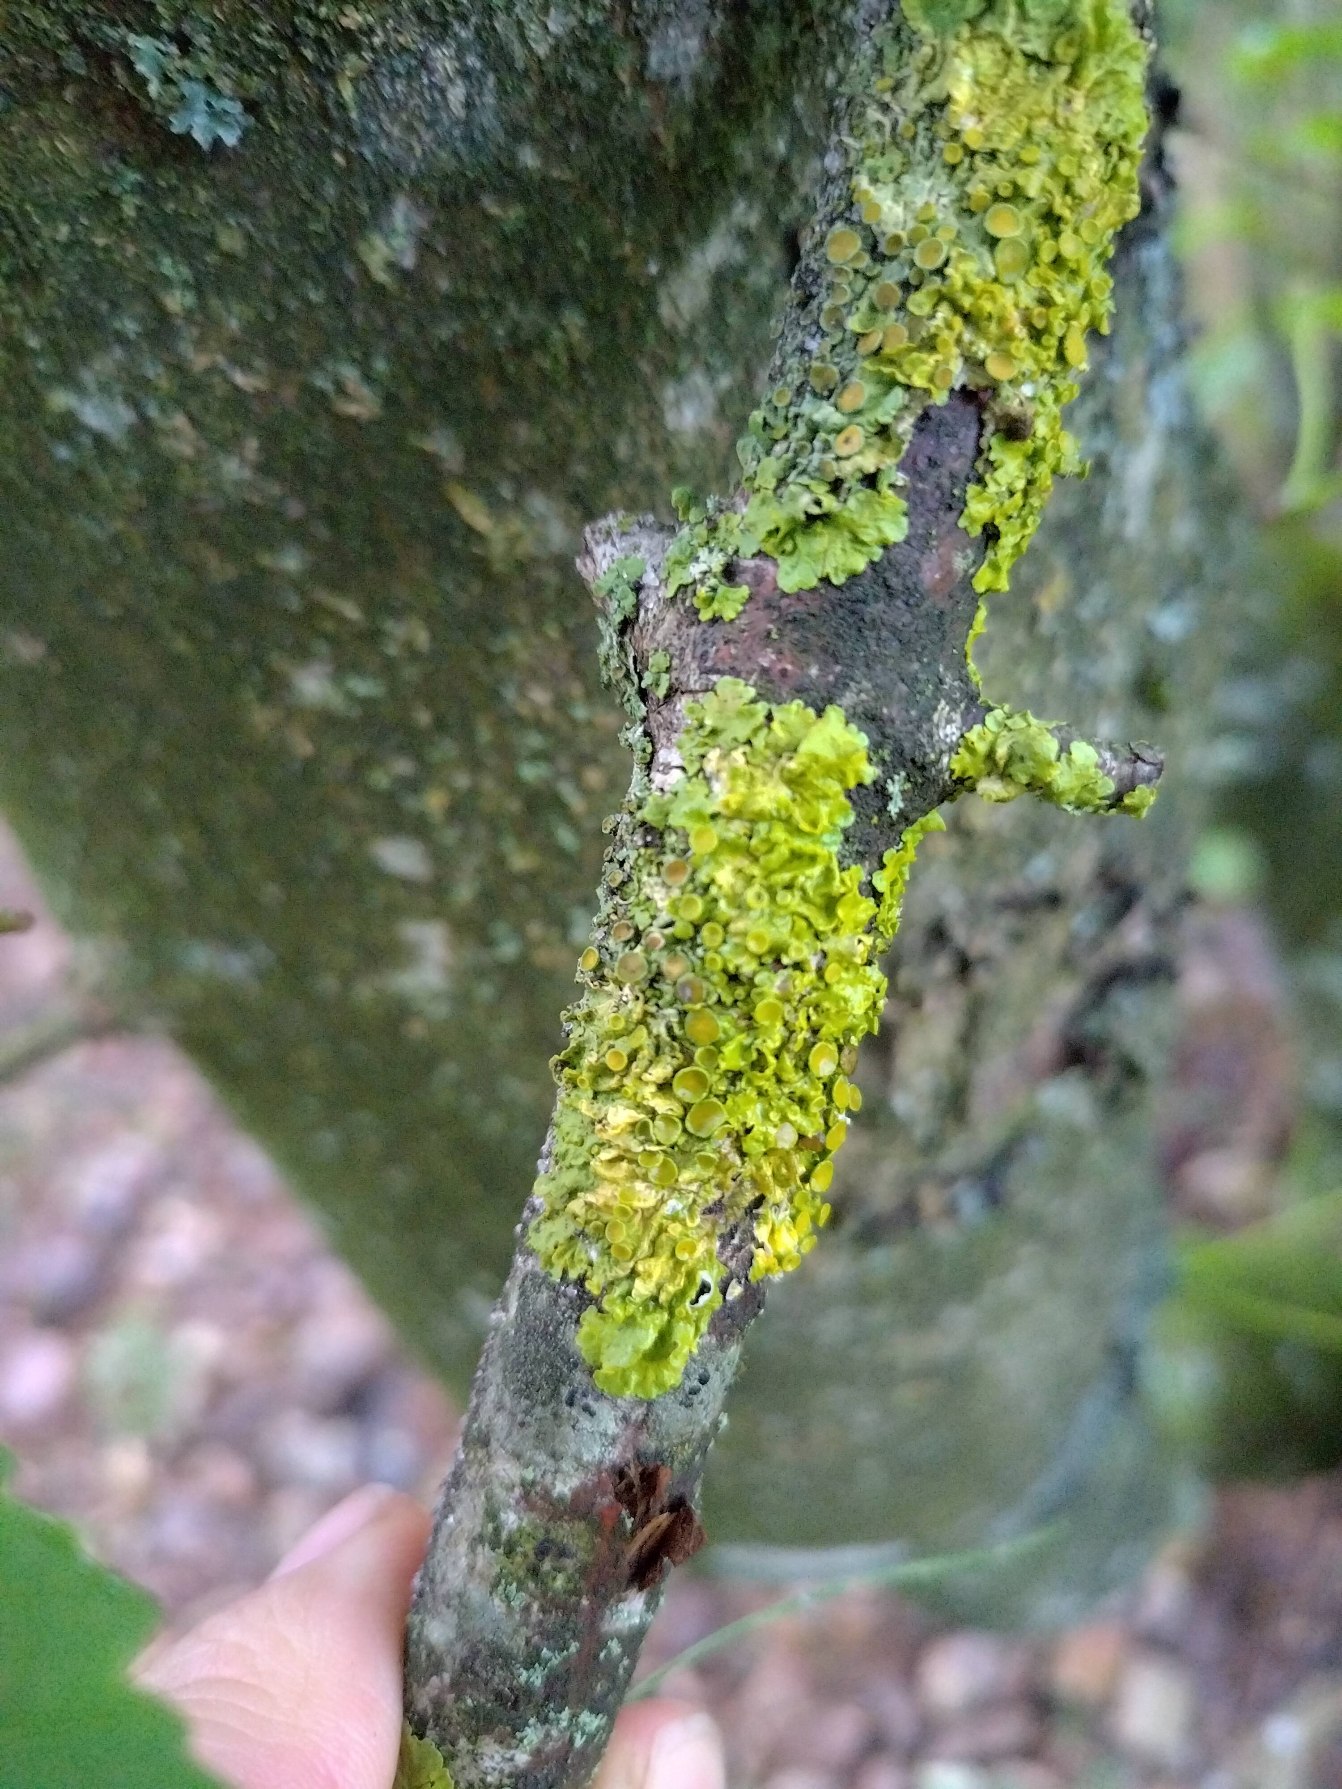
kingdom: Fungi
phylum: Ascomycota
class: Lecanoromycetes
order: Teloschistales
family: Teloschistaceae
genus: Xanthoria
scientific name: Xanthoria parietina
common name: Almindelig væggelav
